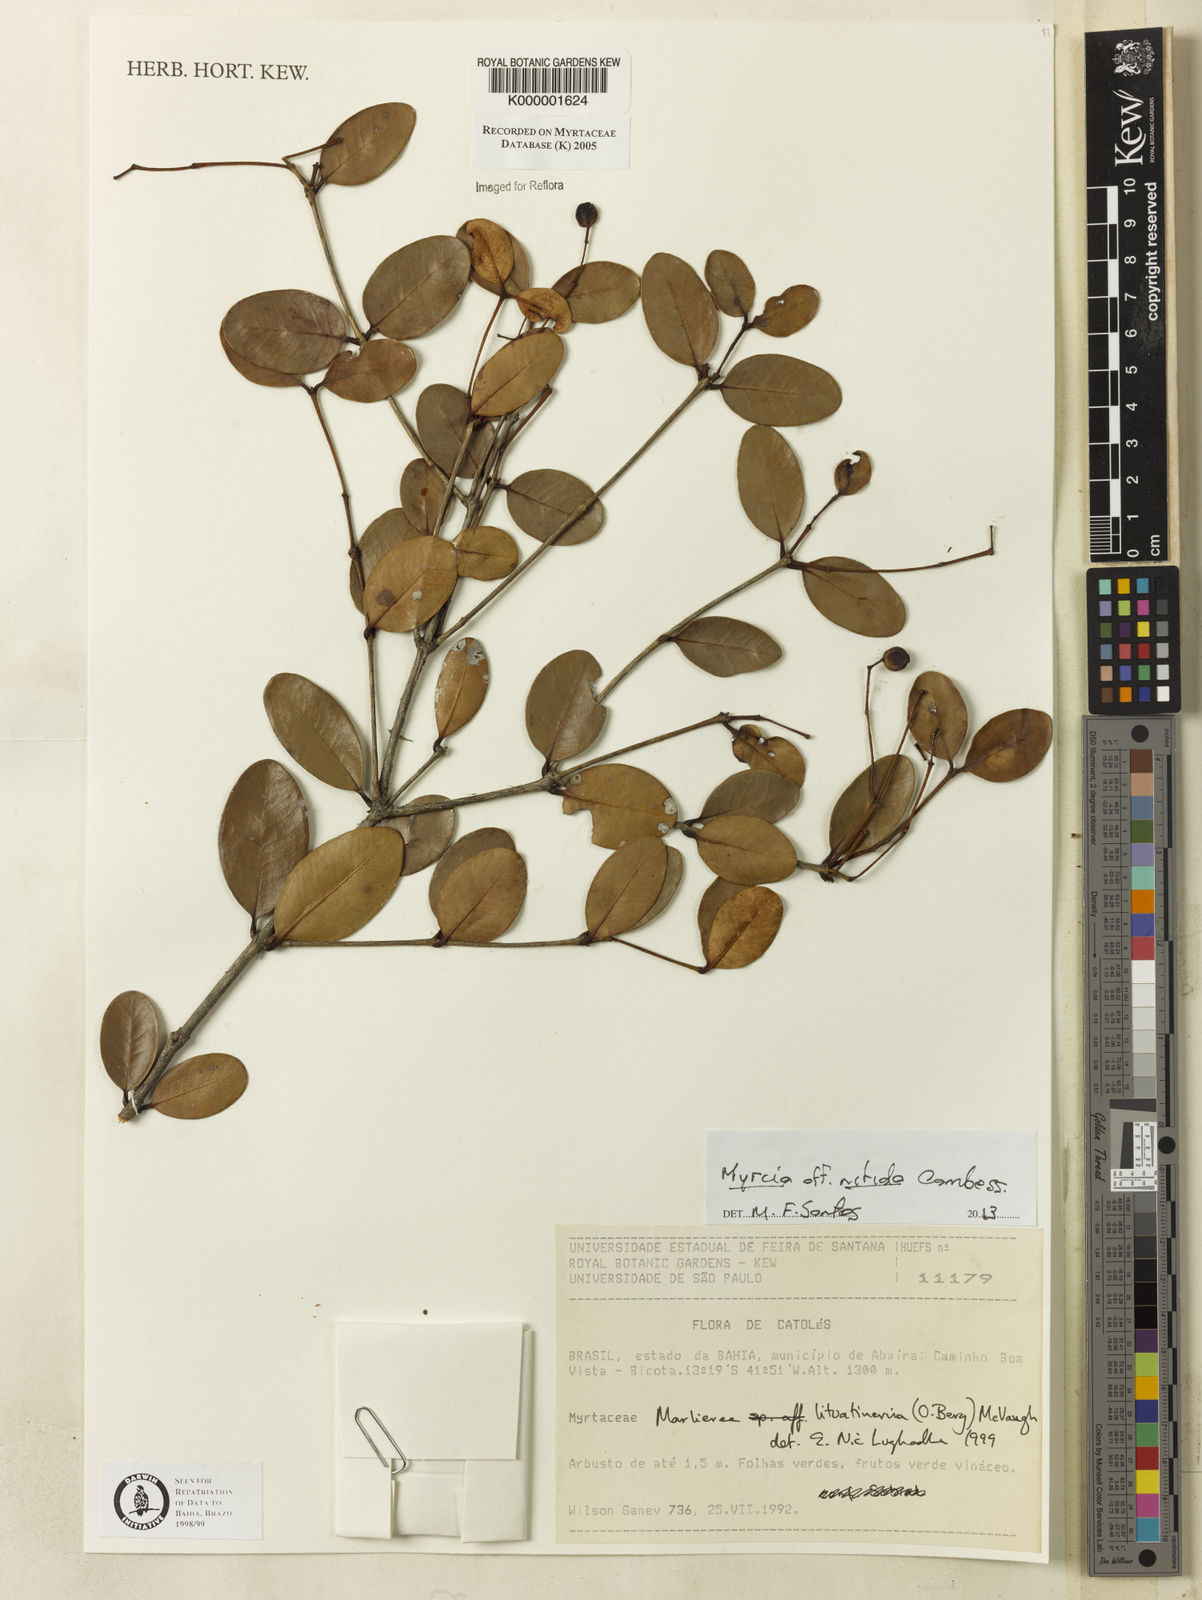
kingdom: Plantae
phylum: Tracheophyta
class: Magnoliopsida
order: Myrtales
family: Myrtaceae
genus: Myrcia
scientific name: Myrcia lituatinervia
